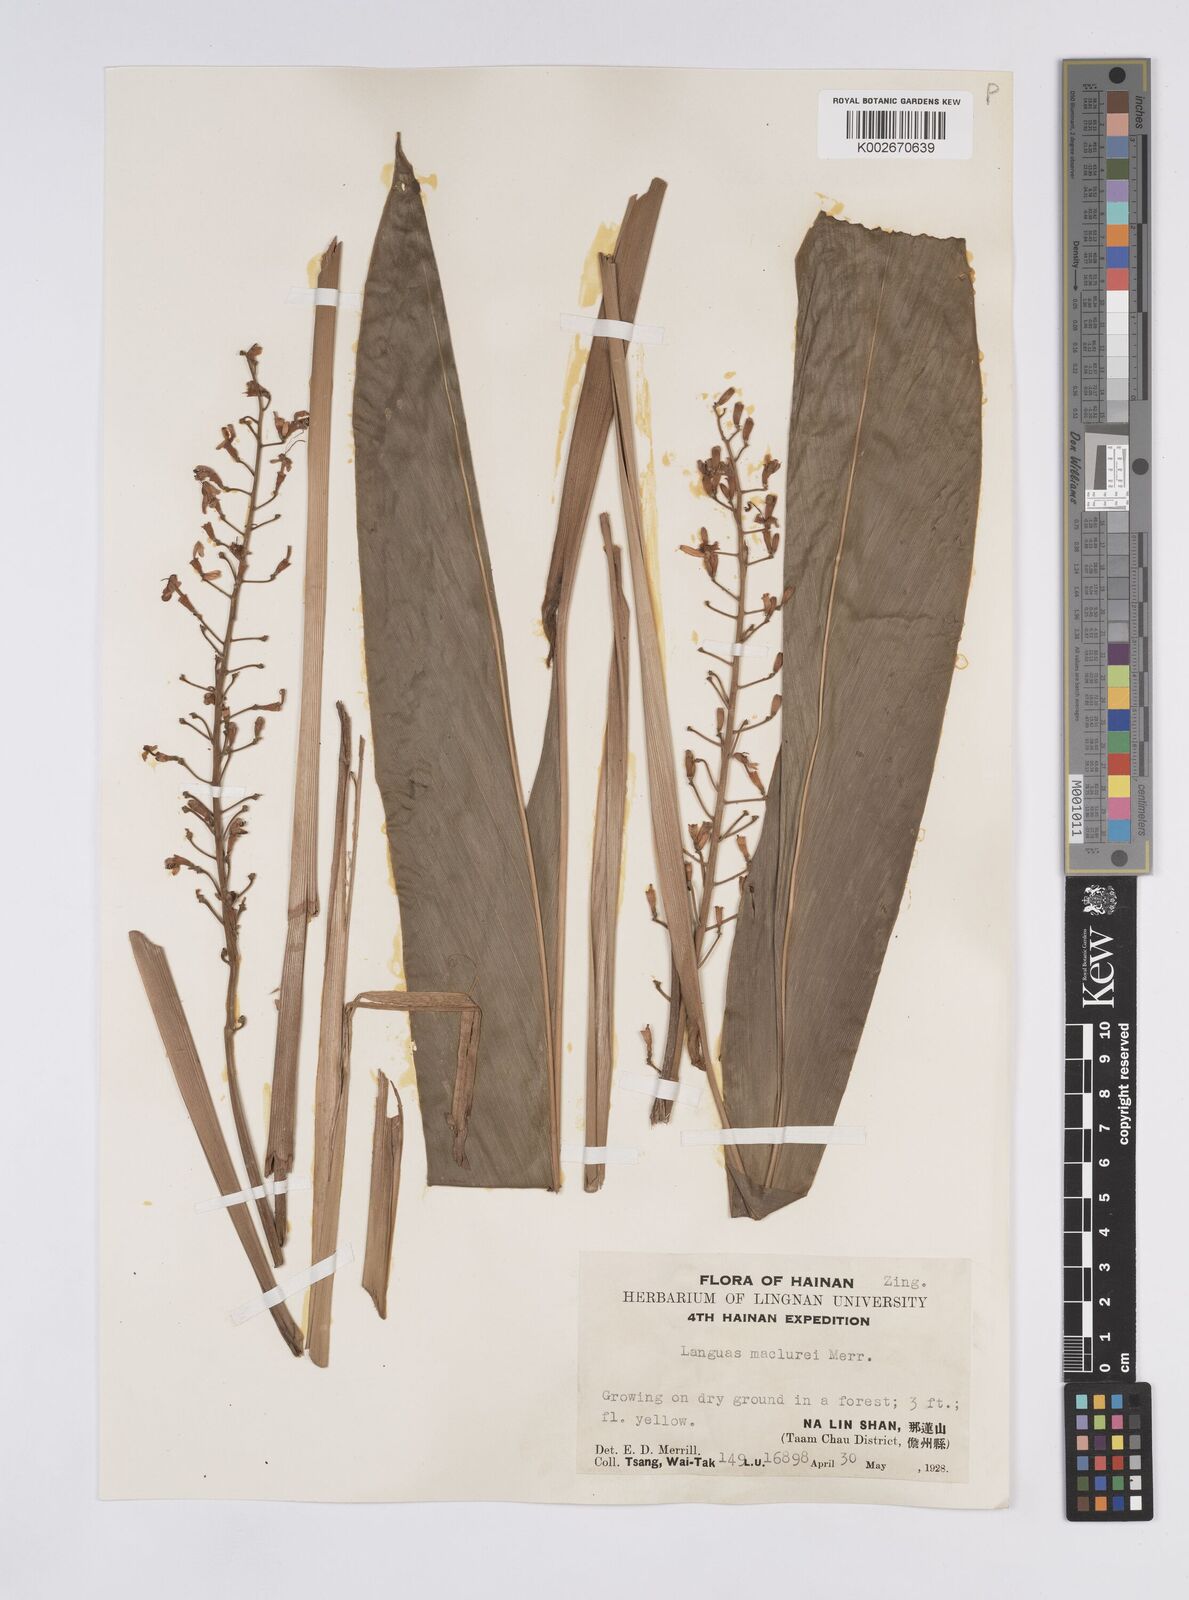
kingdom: Plantae
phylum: Tracheophyta
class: Liliopsida
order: Zingiberales
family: Zingiberaceae
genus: Alpinia
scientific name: Alpinia maclurei
